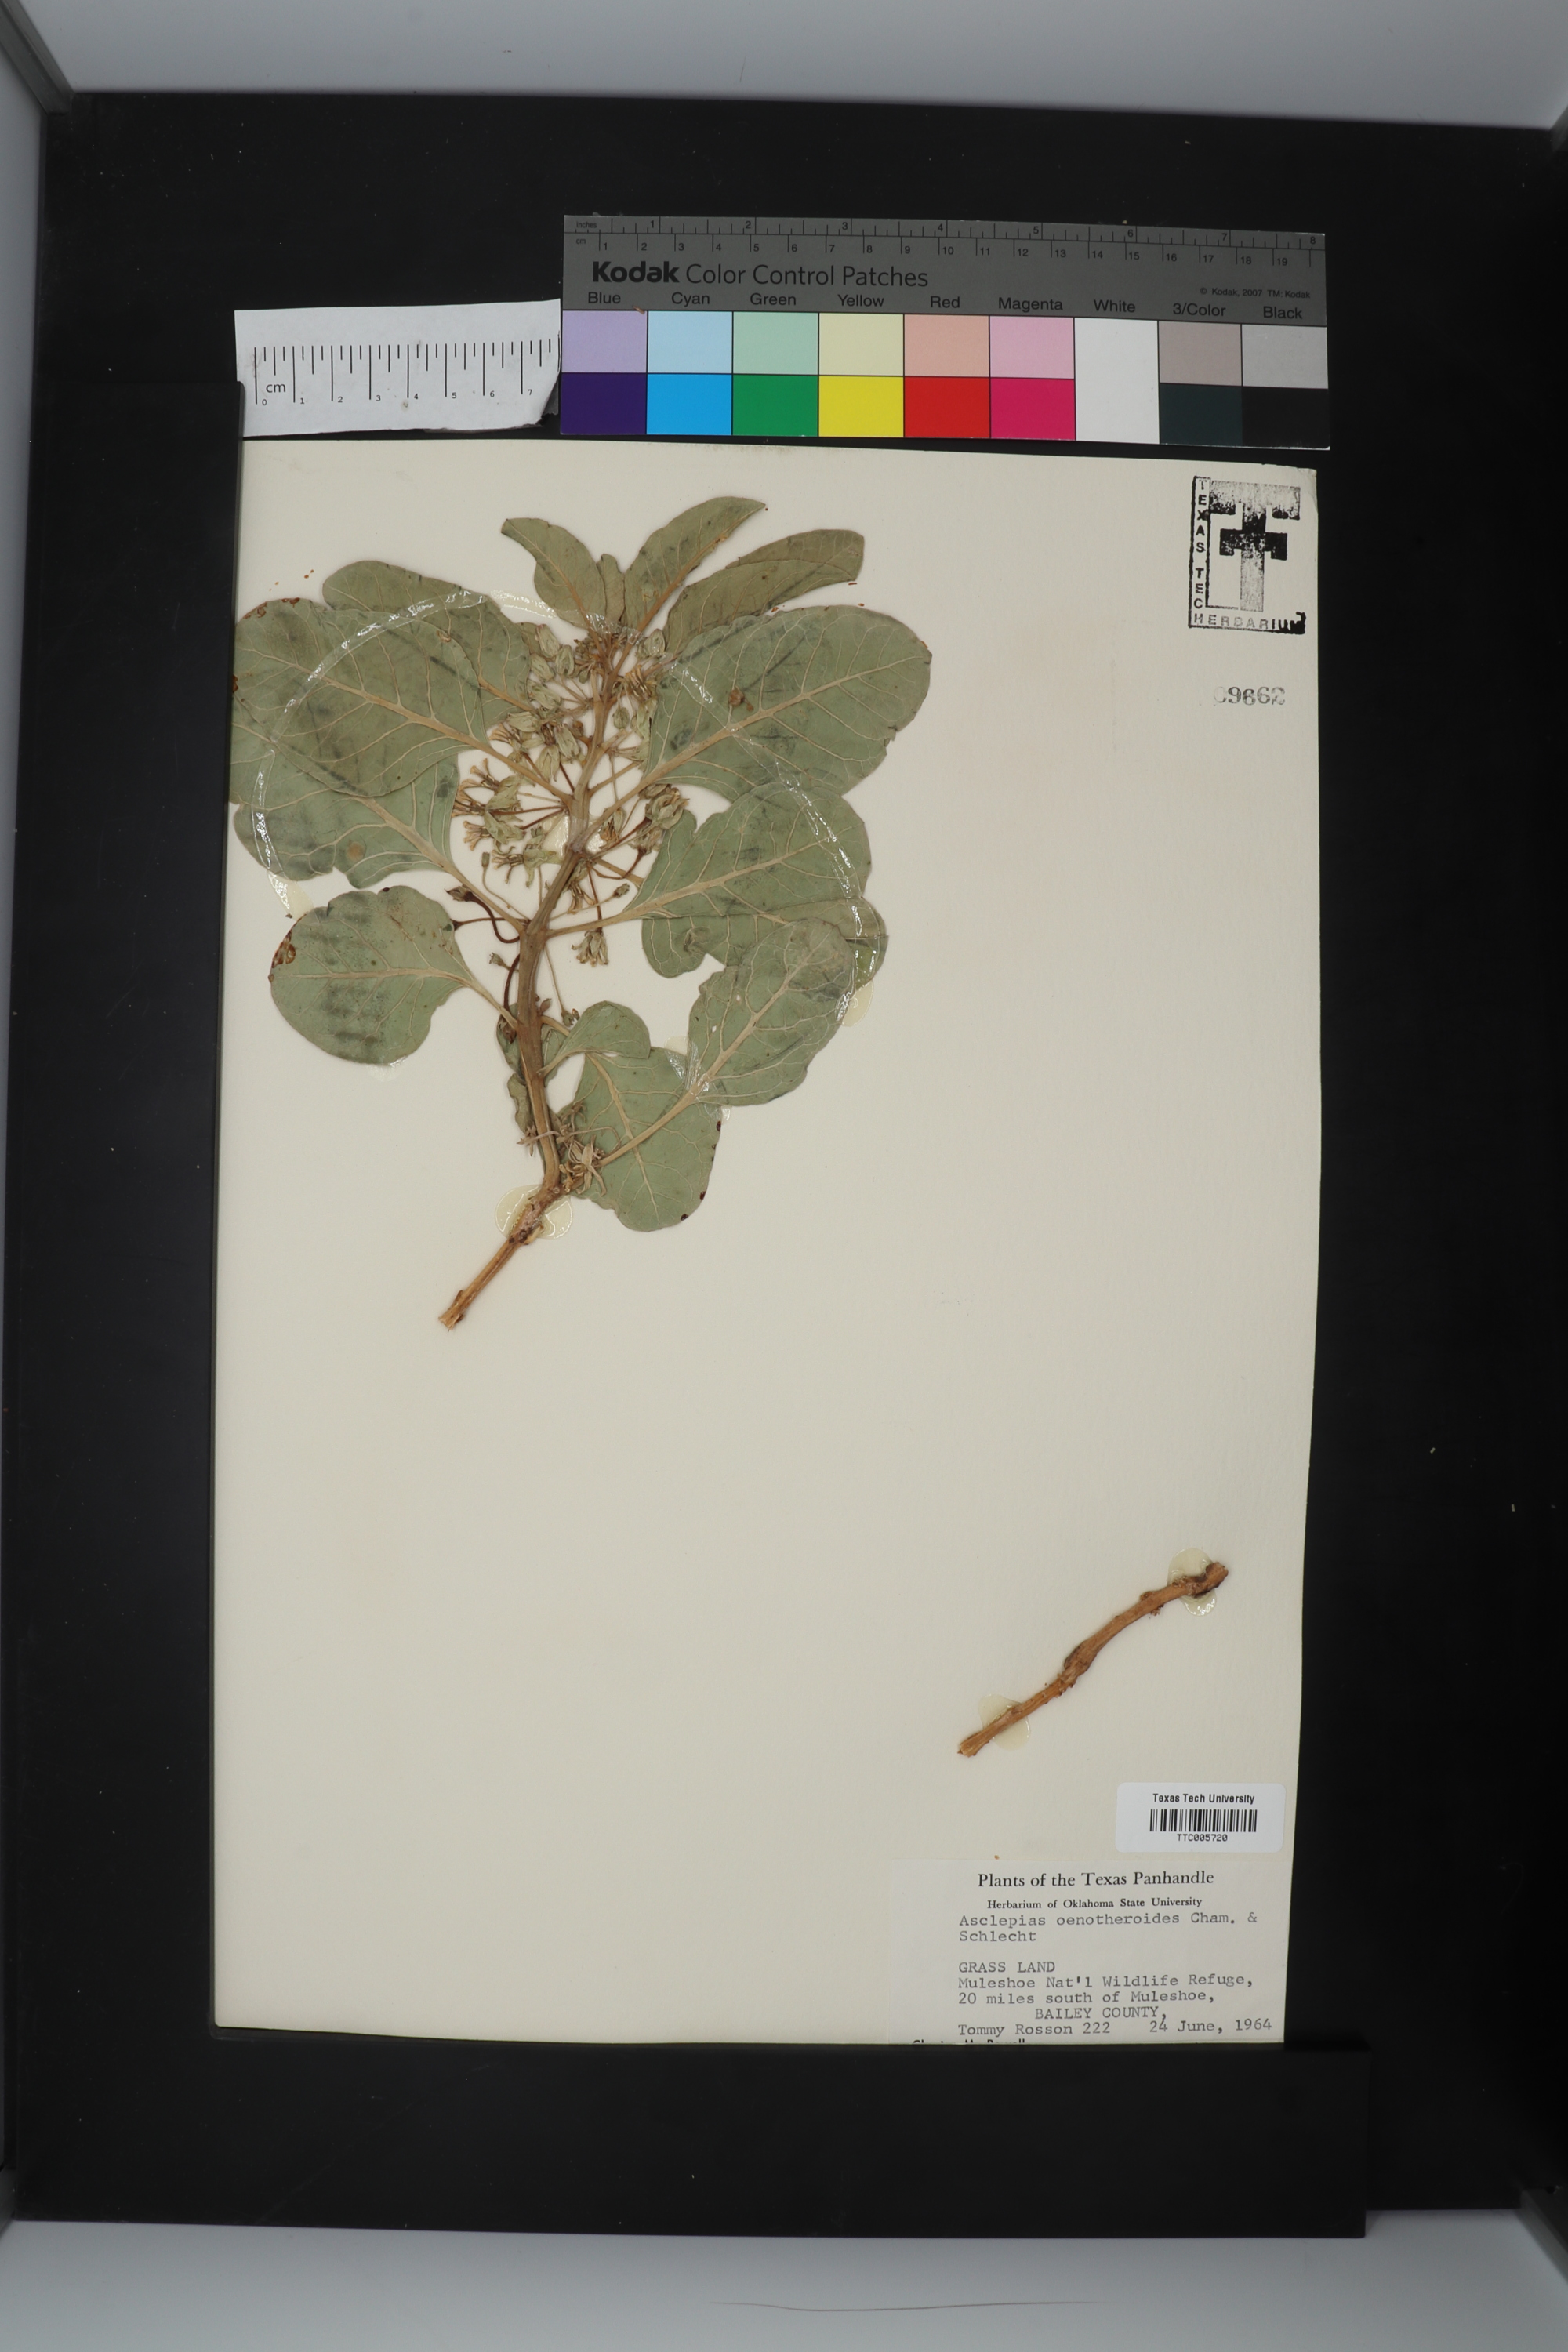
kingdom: Plantae
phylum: Tracheophyta
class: Magnoliopsida
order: Gentianales
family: Apocynaceae
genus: Asclepias
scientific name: Asclepias oenotheroides
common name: Zizotes milkweed
